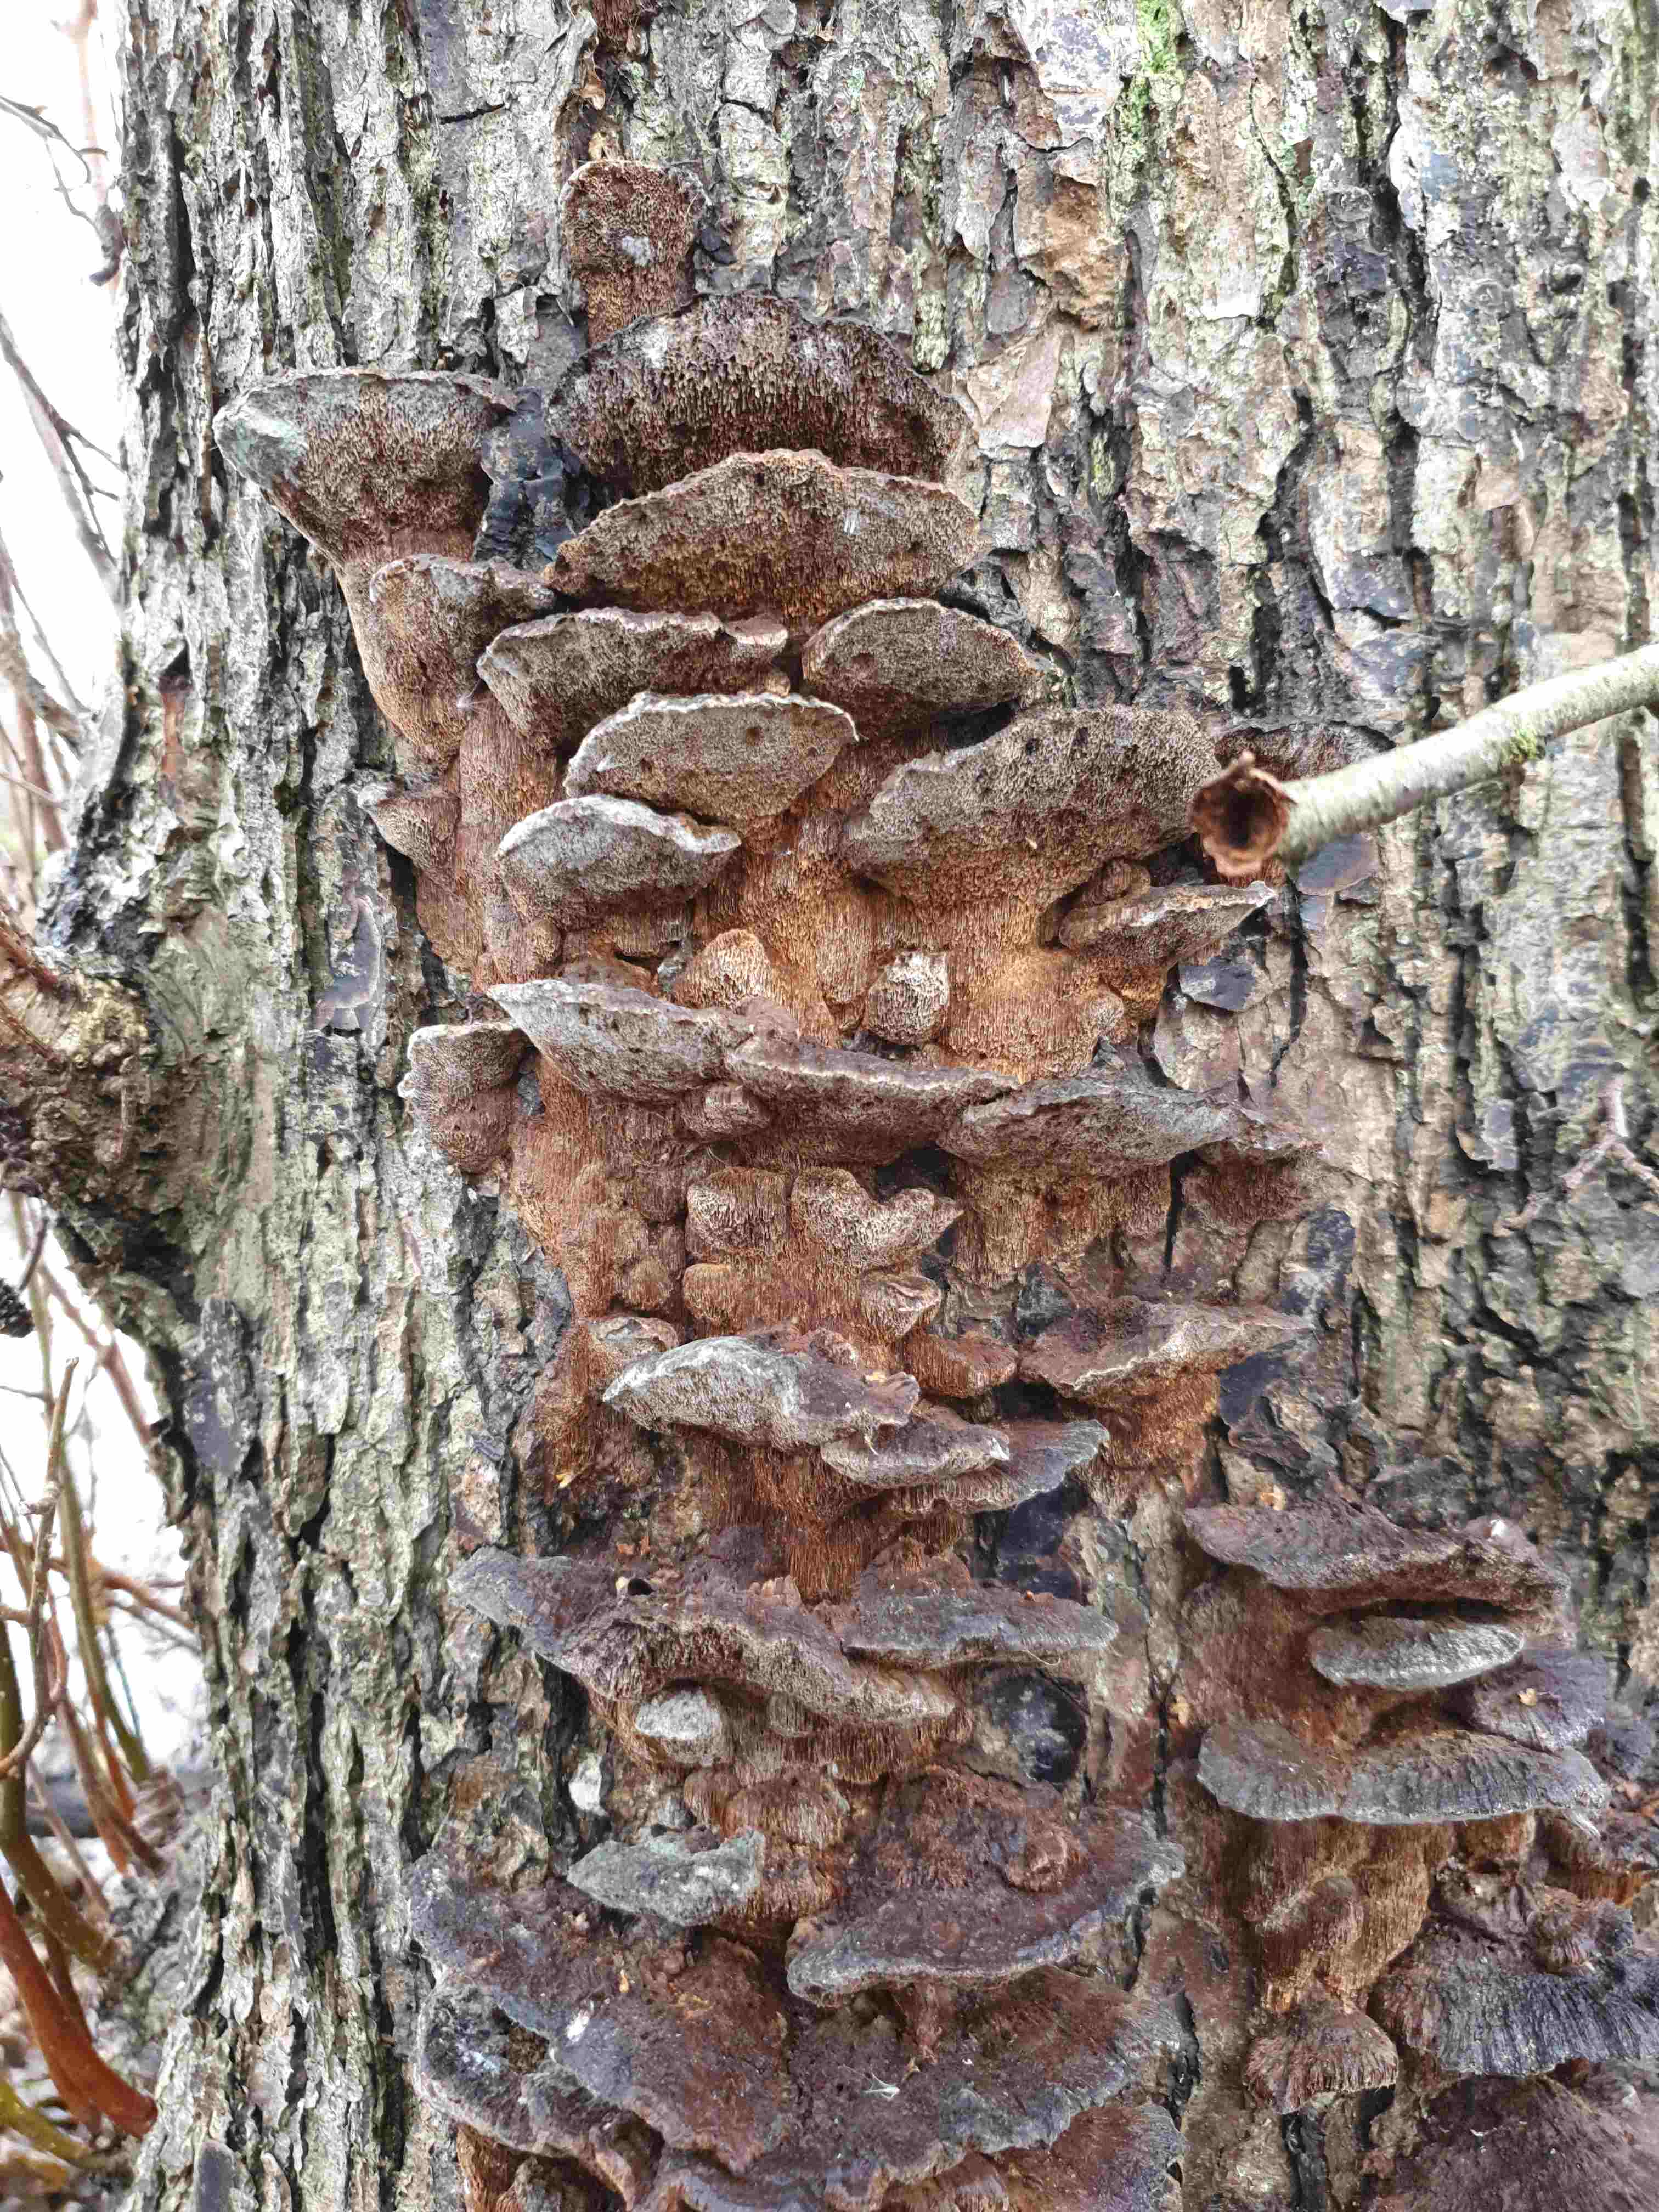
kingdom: Fungi
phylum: Basidiomycota
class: Agaricomycetes
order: Hymenochaetales
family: Hymenochaetaceae
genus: Xanthoporia
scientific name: Xanthoporia radiata
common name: elle-spejlporesvamp
